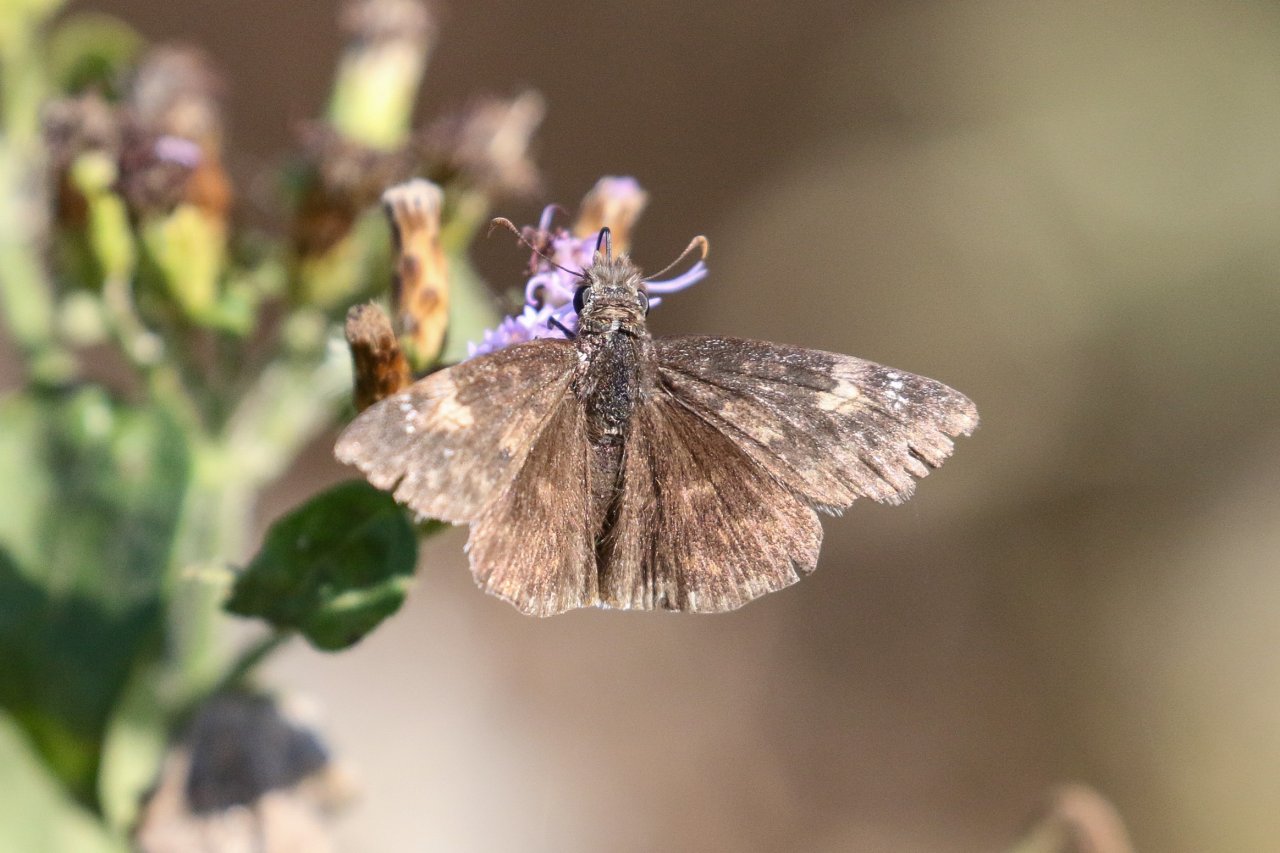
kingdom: Animalia
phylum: Arthropoda
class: Insecta
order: Lepidoptera
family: Hesperiidae
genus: Erynnis
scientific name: Erynnis funeralis
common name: Funereal Duskywing
